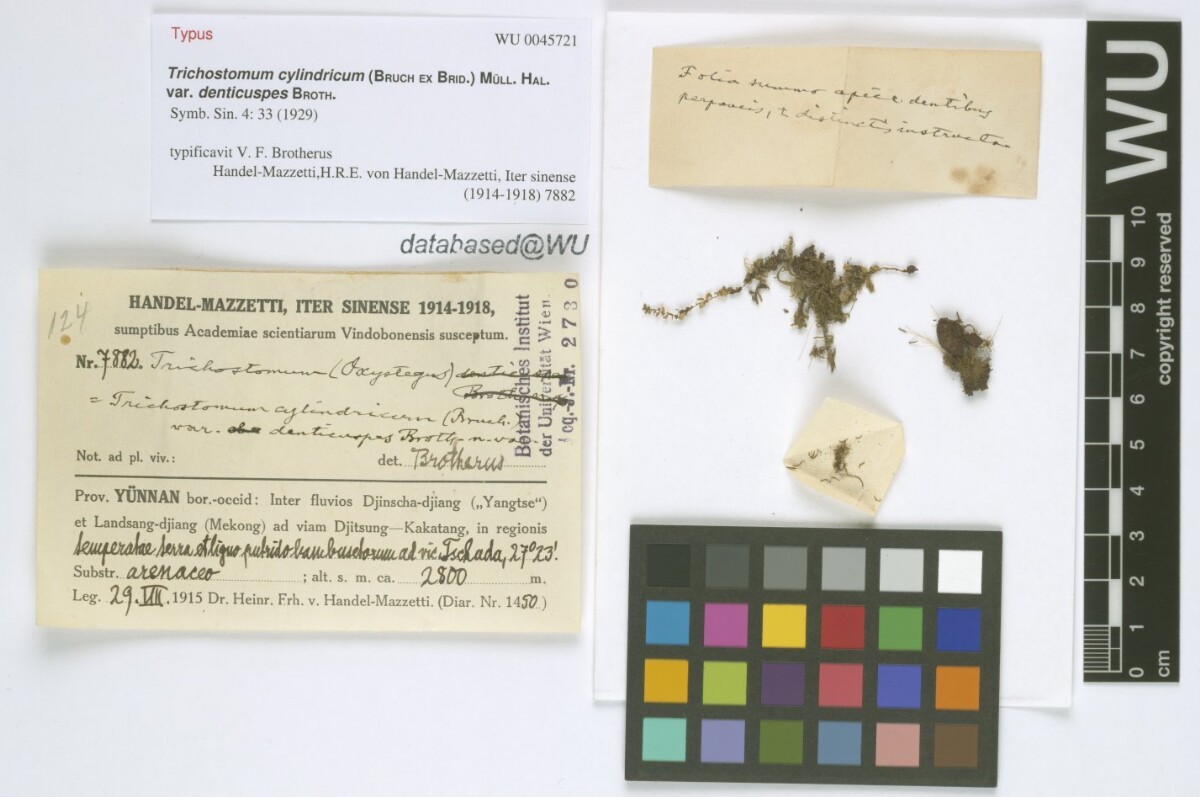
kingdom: Plantae
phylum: Bryophyta
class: Bryopsida
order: Pottiales
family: Pottiaceae
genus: Chionoloma
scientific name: Chionoloma tenuirostre
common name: Narrow-fruited crisp-moss
